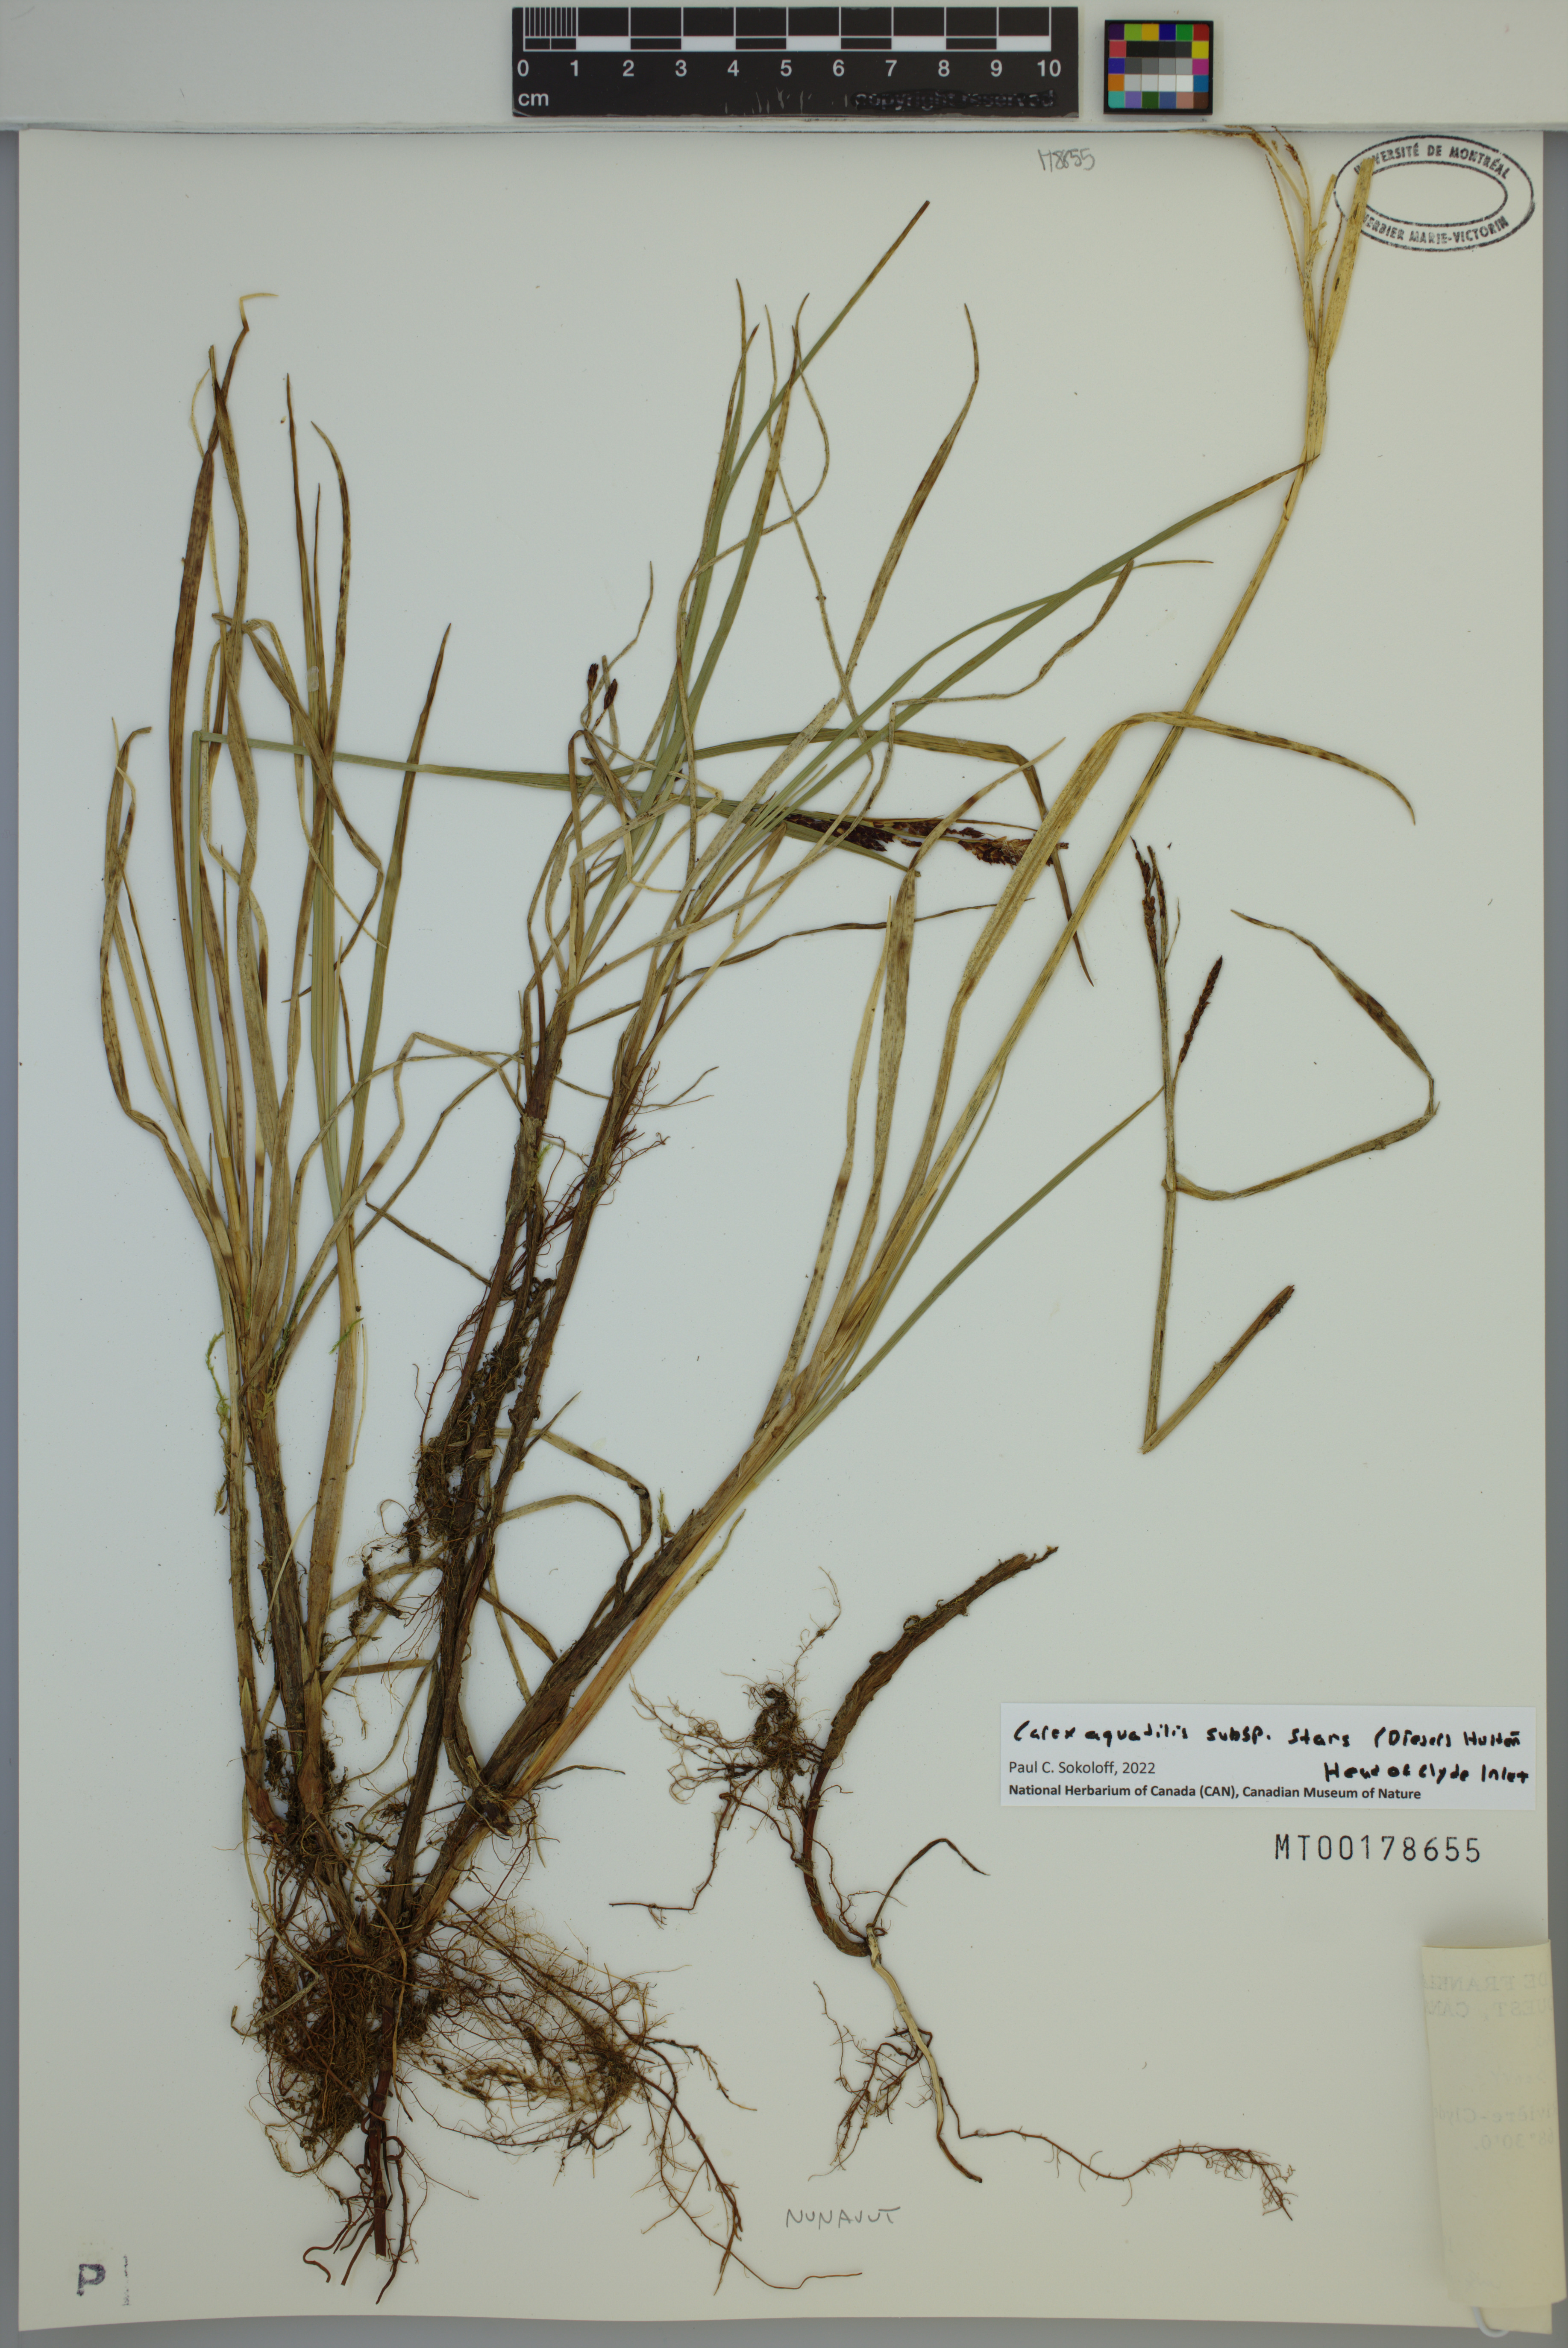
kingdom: Plantae
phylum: Tracheophyta
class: Liliopsida
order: Poales
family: Cyperaceae
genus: Carex
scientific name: Carex aquatilis
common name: Water sedge
